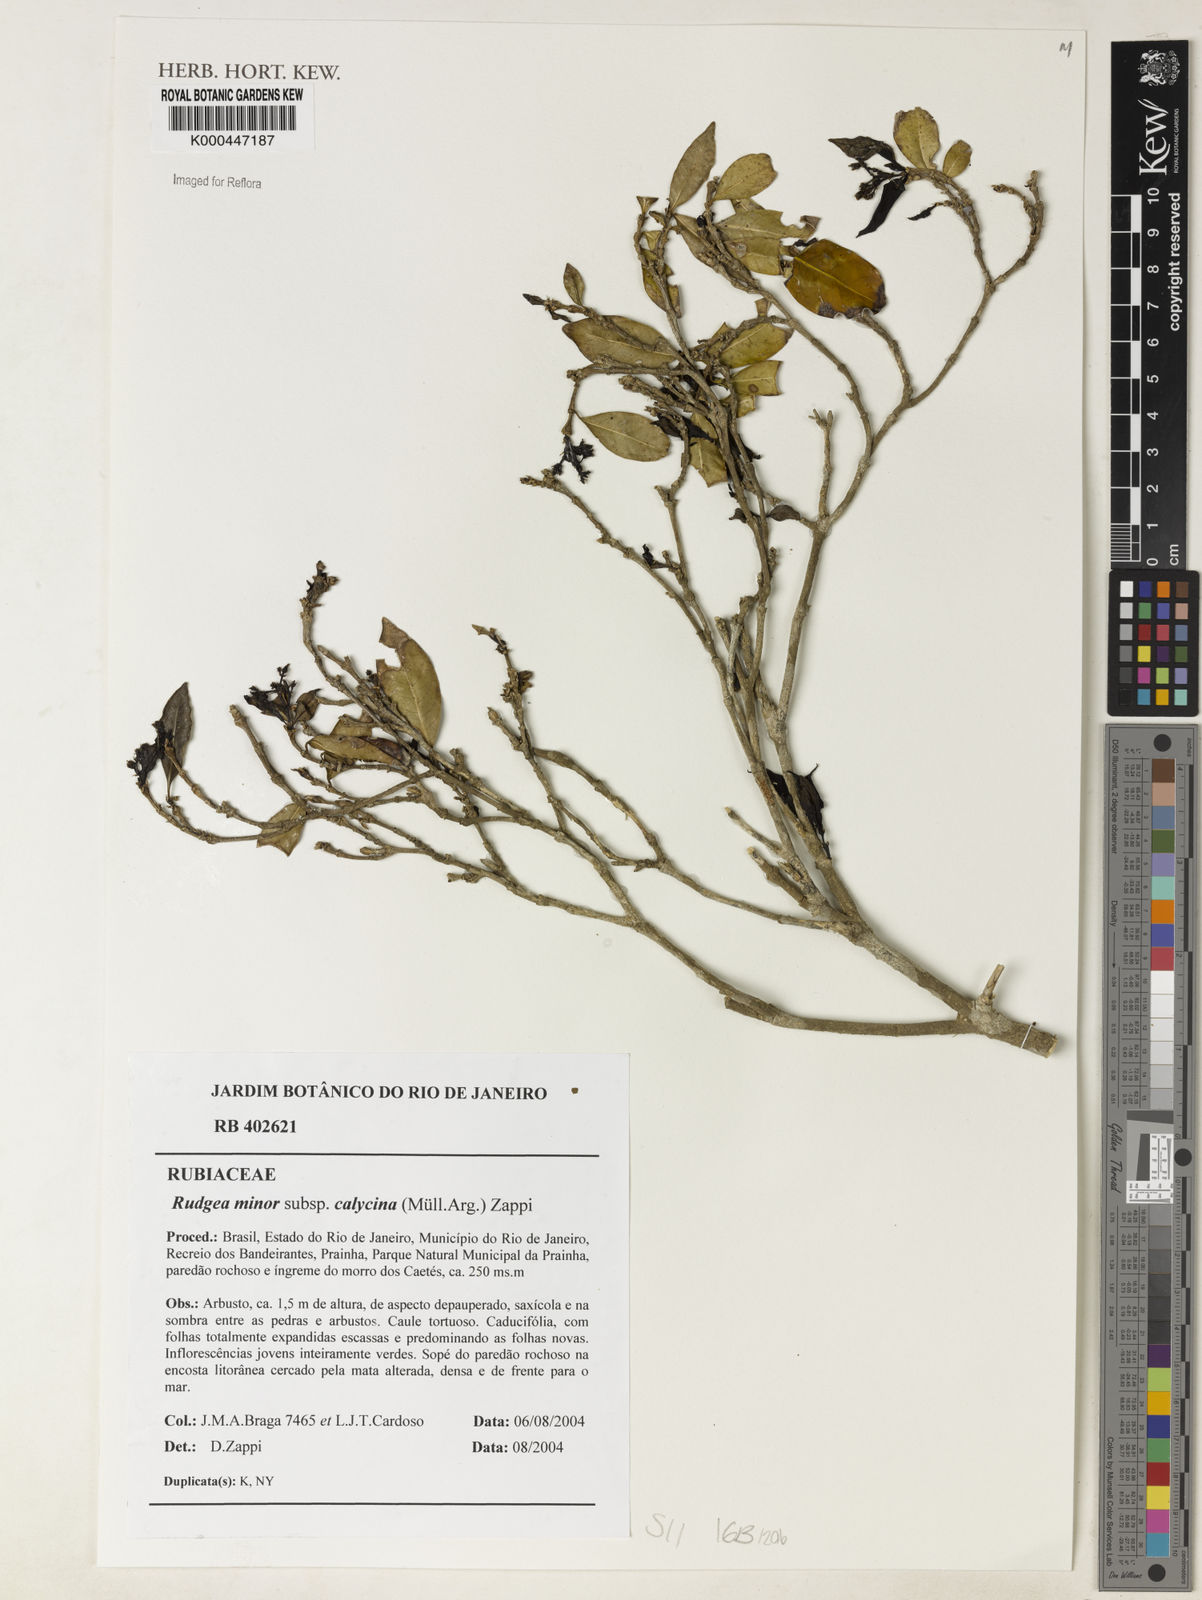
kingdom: Plantae
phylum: Tracheophyta
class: Magnoliopsida
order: Gentianales
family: Rubiaceae
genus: Rudgea
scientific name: Rudgea minor
